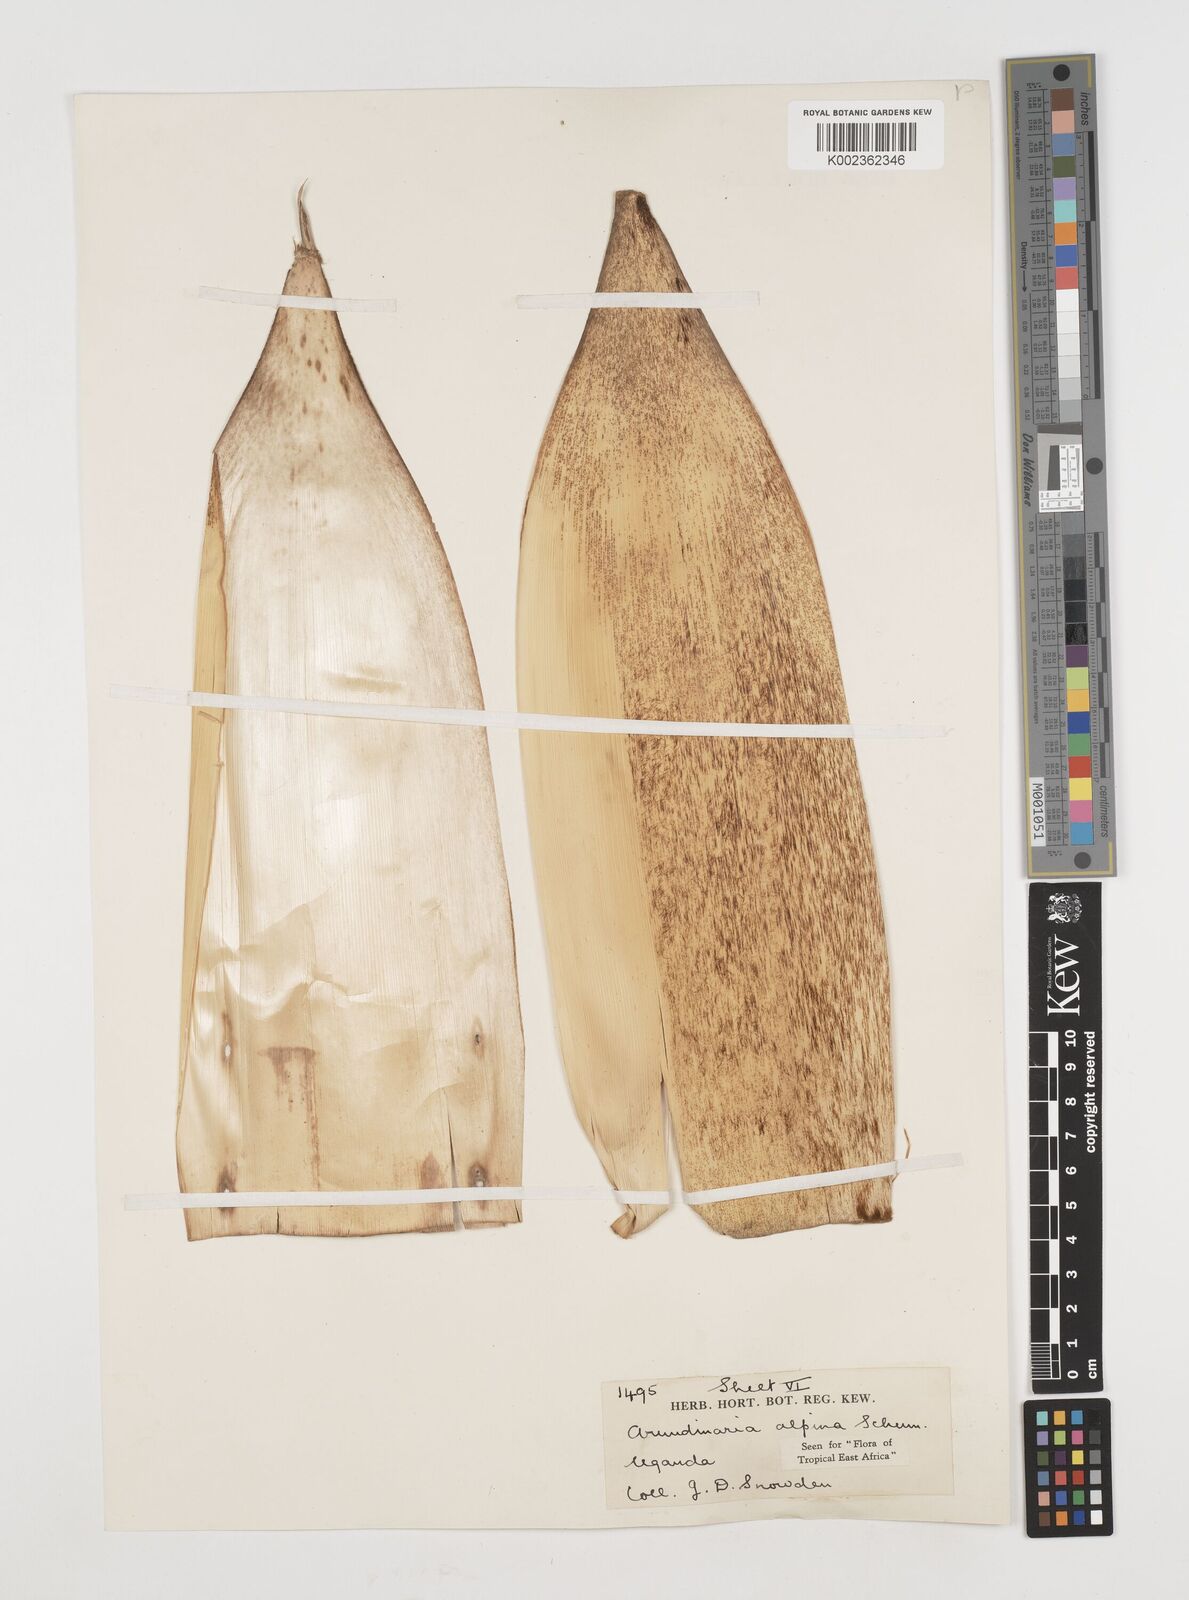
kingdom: Plantae
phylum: Tracheophyta
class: Liliopsida
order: Poales
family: Poaceae
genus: Oldeania
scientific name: Oldeania alpina
